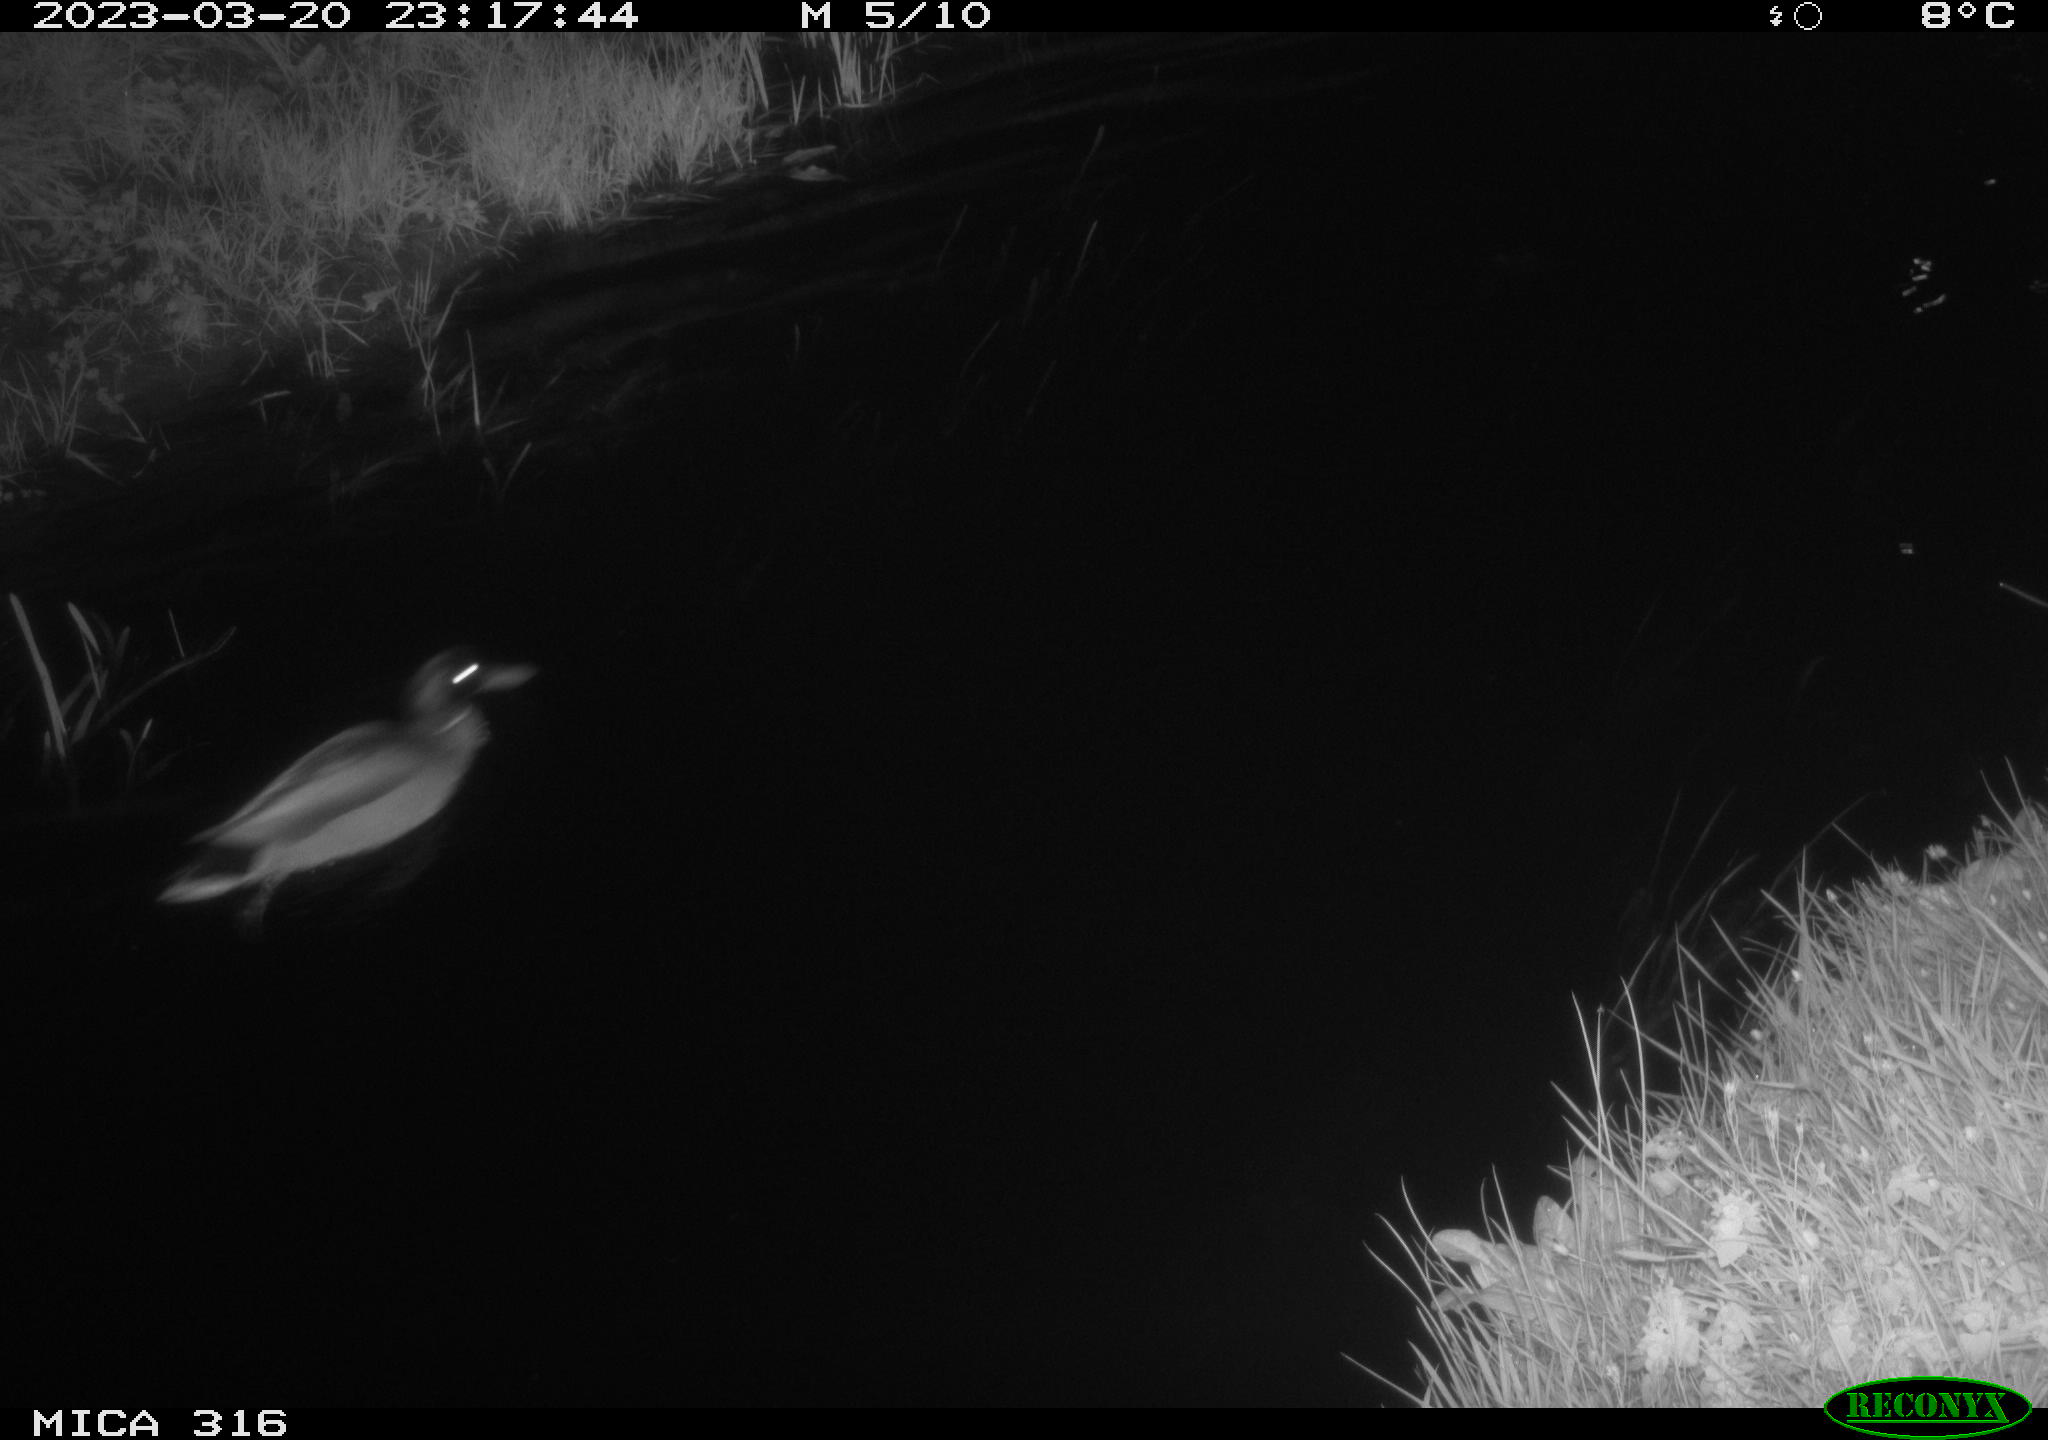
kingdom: Animalia
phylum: Chordata
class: Aves
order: Anseriformes
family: Anatidae
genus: Anas
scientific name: Anas
